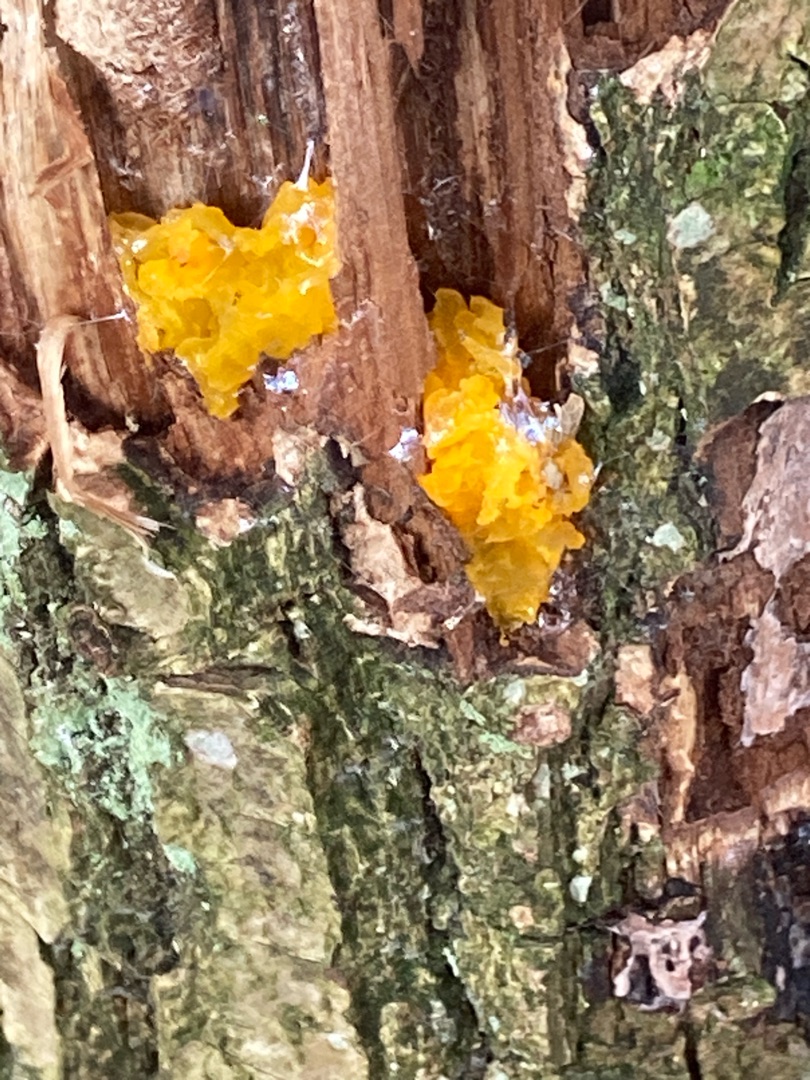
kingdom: Fungi
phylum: Basidiomycota
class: Tremellomycetes
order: Tremellales
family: Tremellaceae
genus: Tremella
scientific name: Tremella mesenterica
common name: Gul bævresvamp
